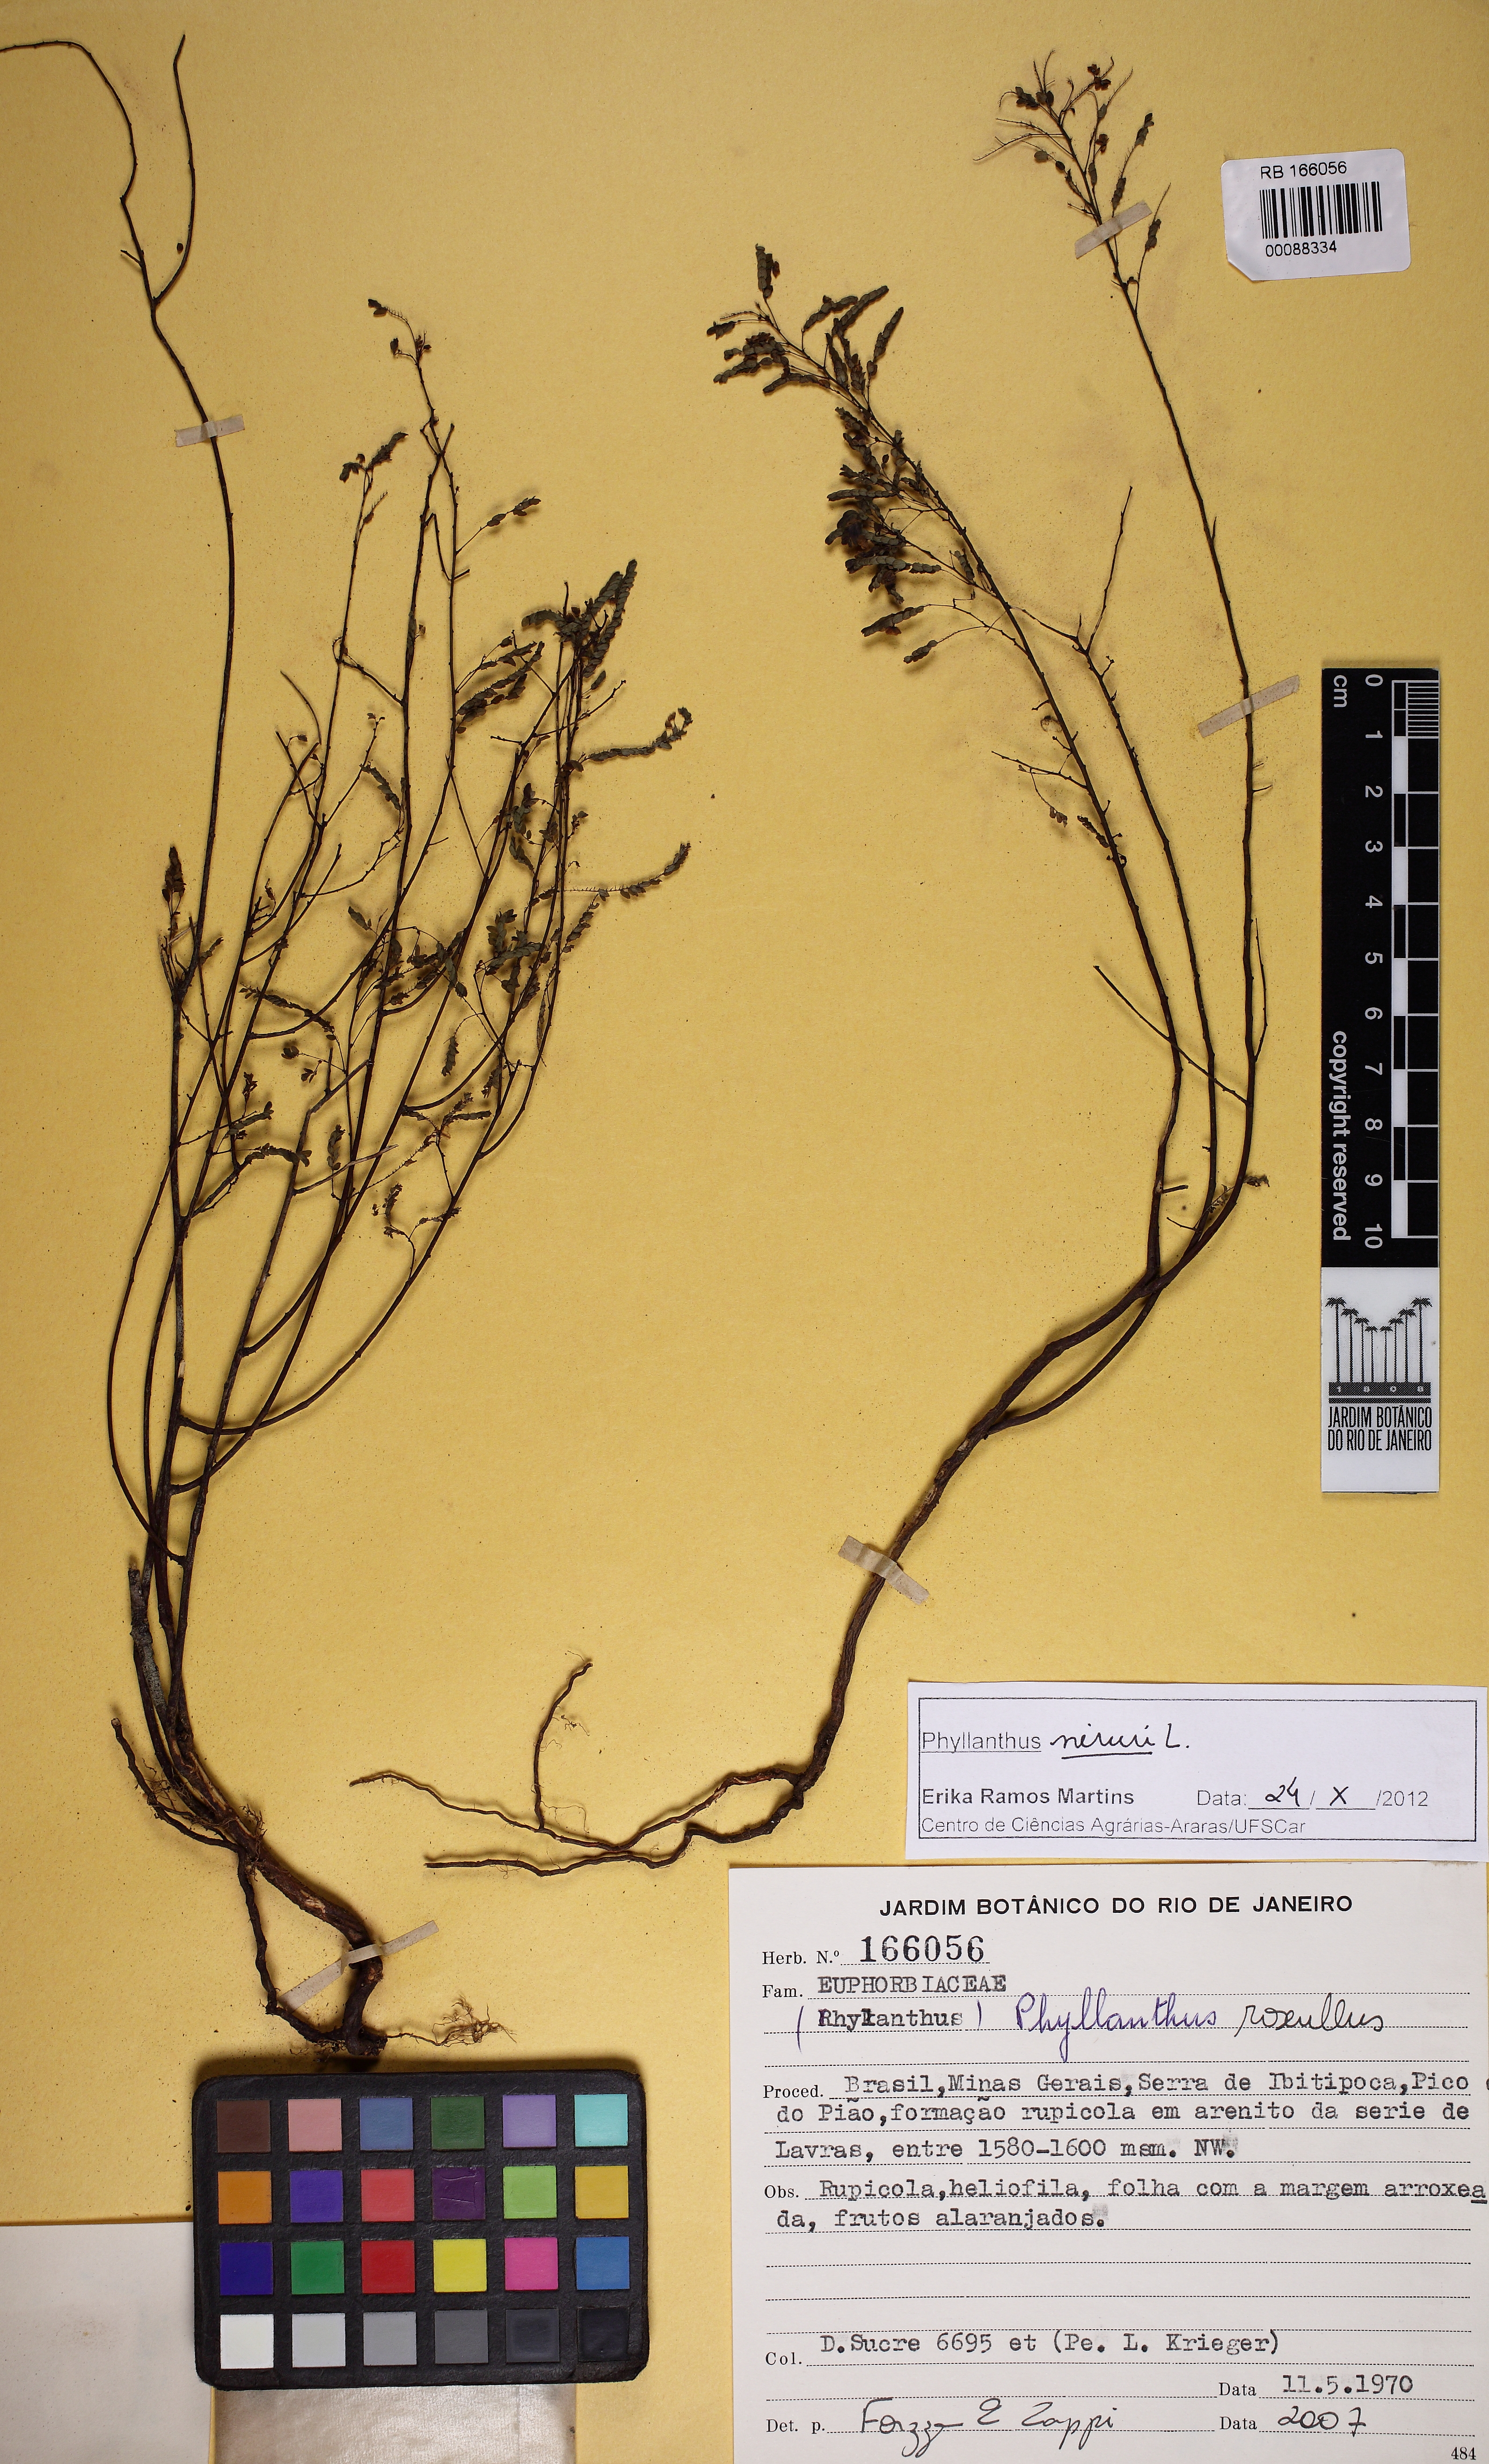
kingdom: Plantae
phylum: Tracheophyta
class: Magnoliopsida
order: Malpighiales
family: Phyllanthaceae
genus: Phyllanthus
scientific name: Phyllanthus niruri
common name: Niruri
